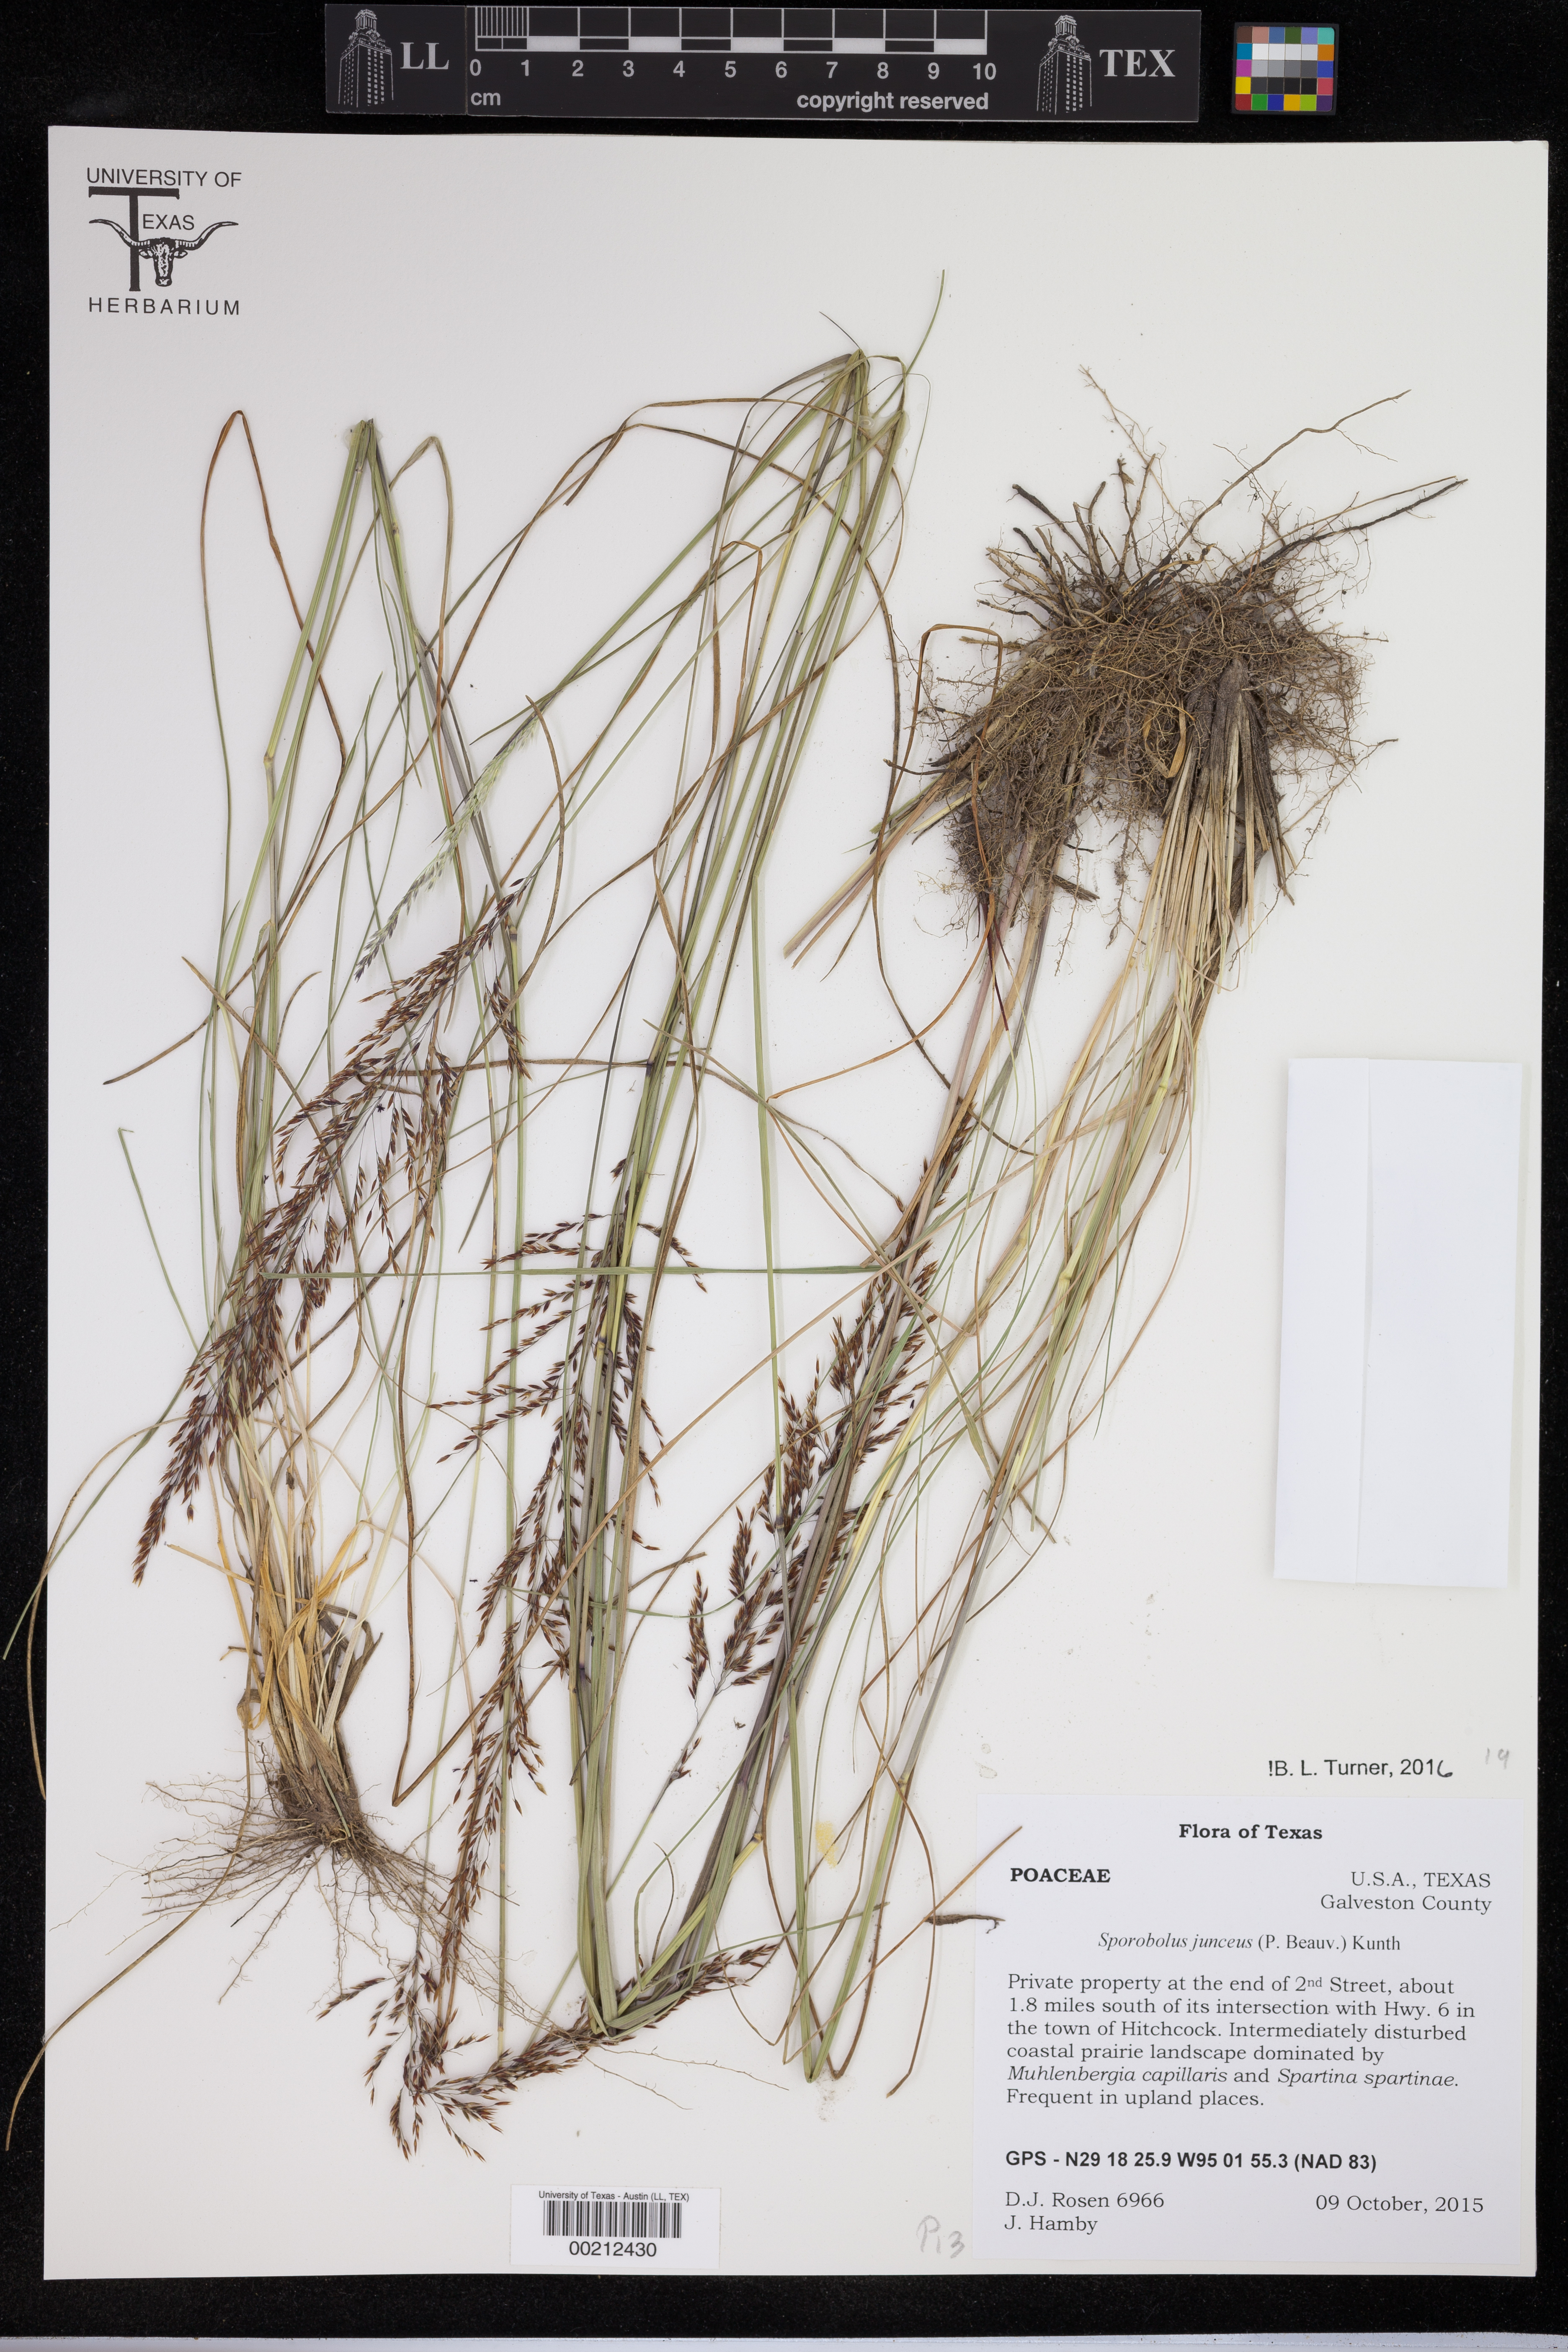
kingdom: Plantae
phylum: Tracheophyta
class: Liliopsida
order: Poales
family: Cyperaceae
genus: Carex
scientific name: Carex lupulina
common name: Hop sedge
